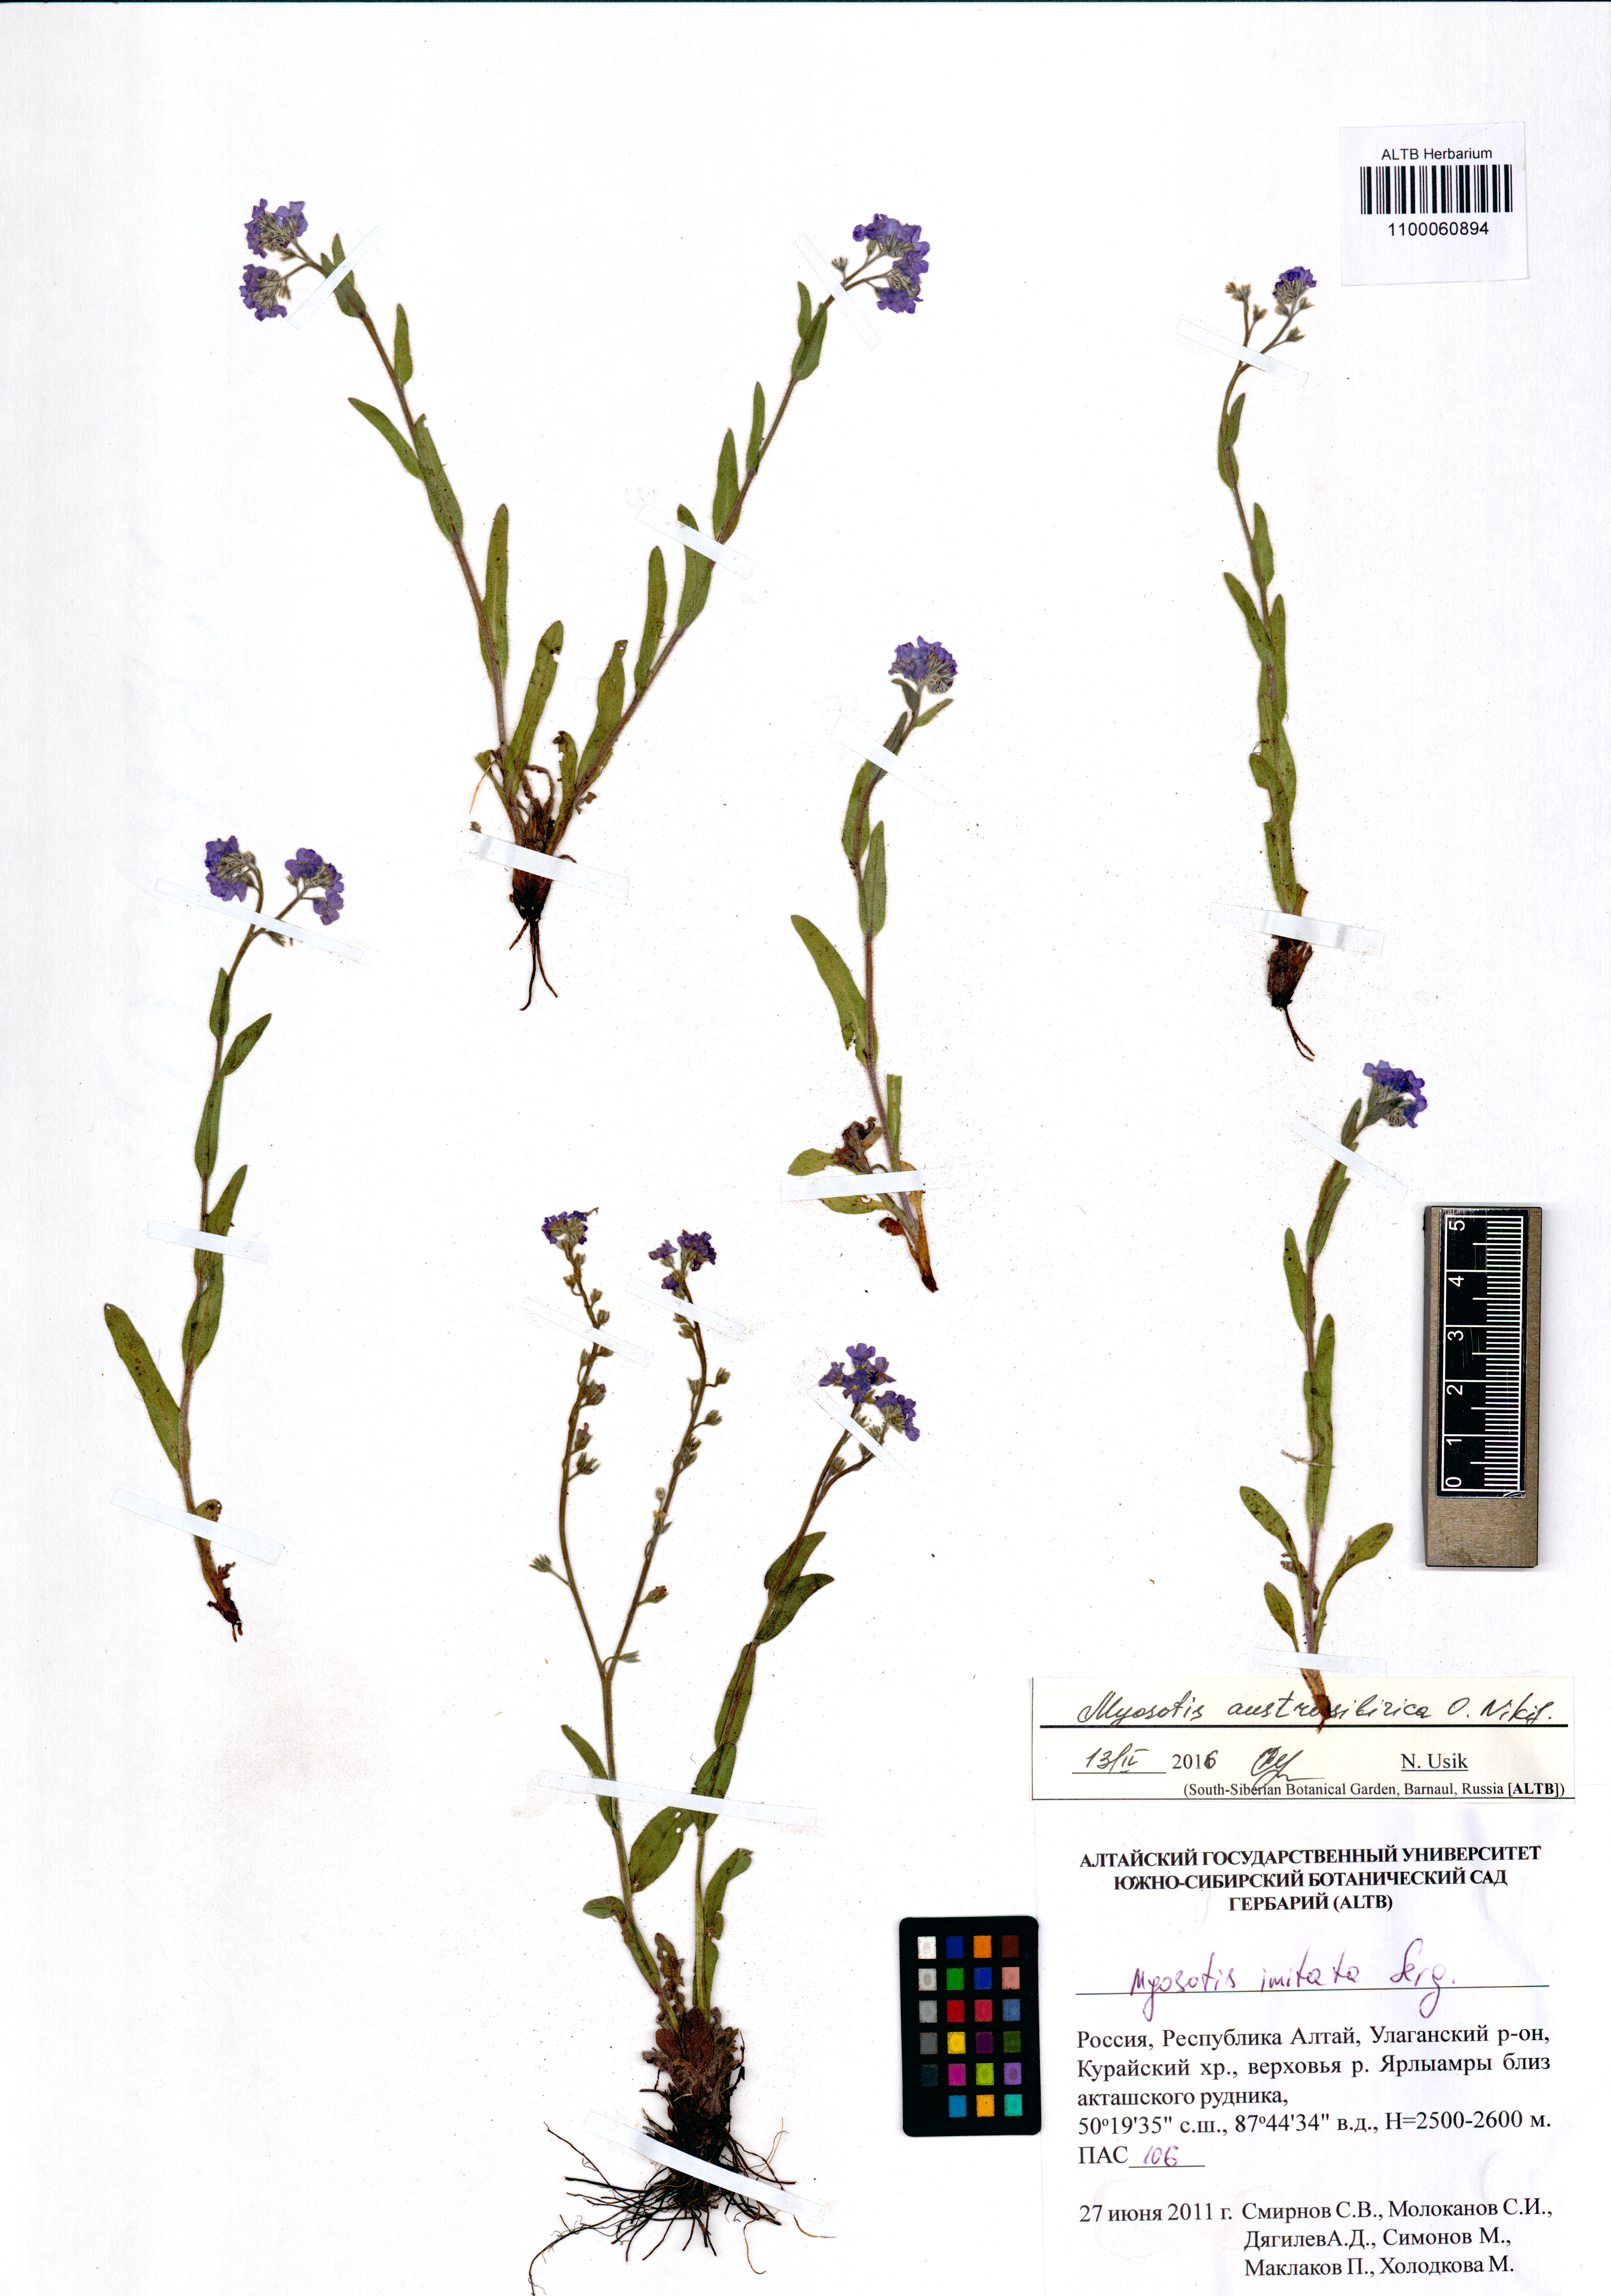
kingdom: Plantae
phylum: Tracheophyta
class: Magnoliopsida
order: Boraginales
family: Boraginaceae
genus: Myosotis
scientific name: Myosotis austrosibirica
